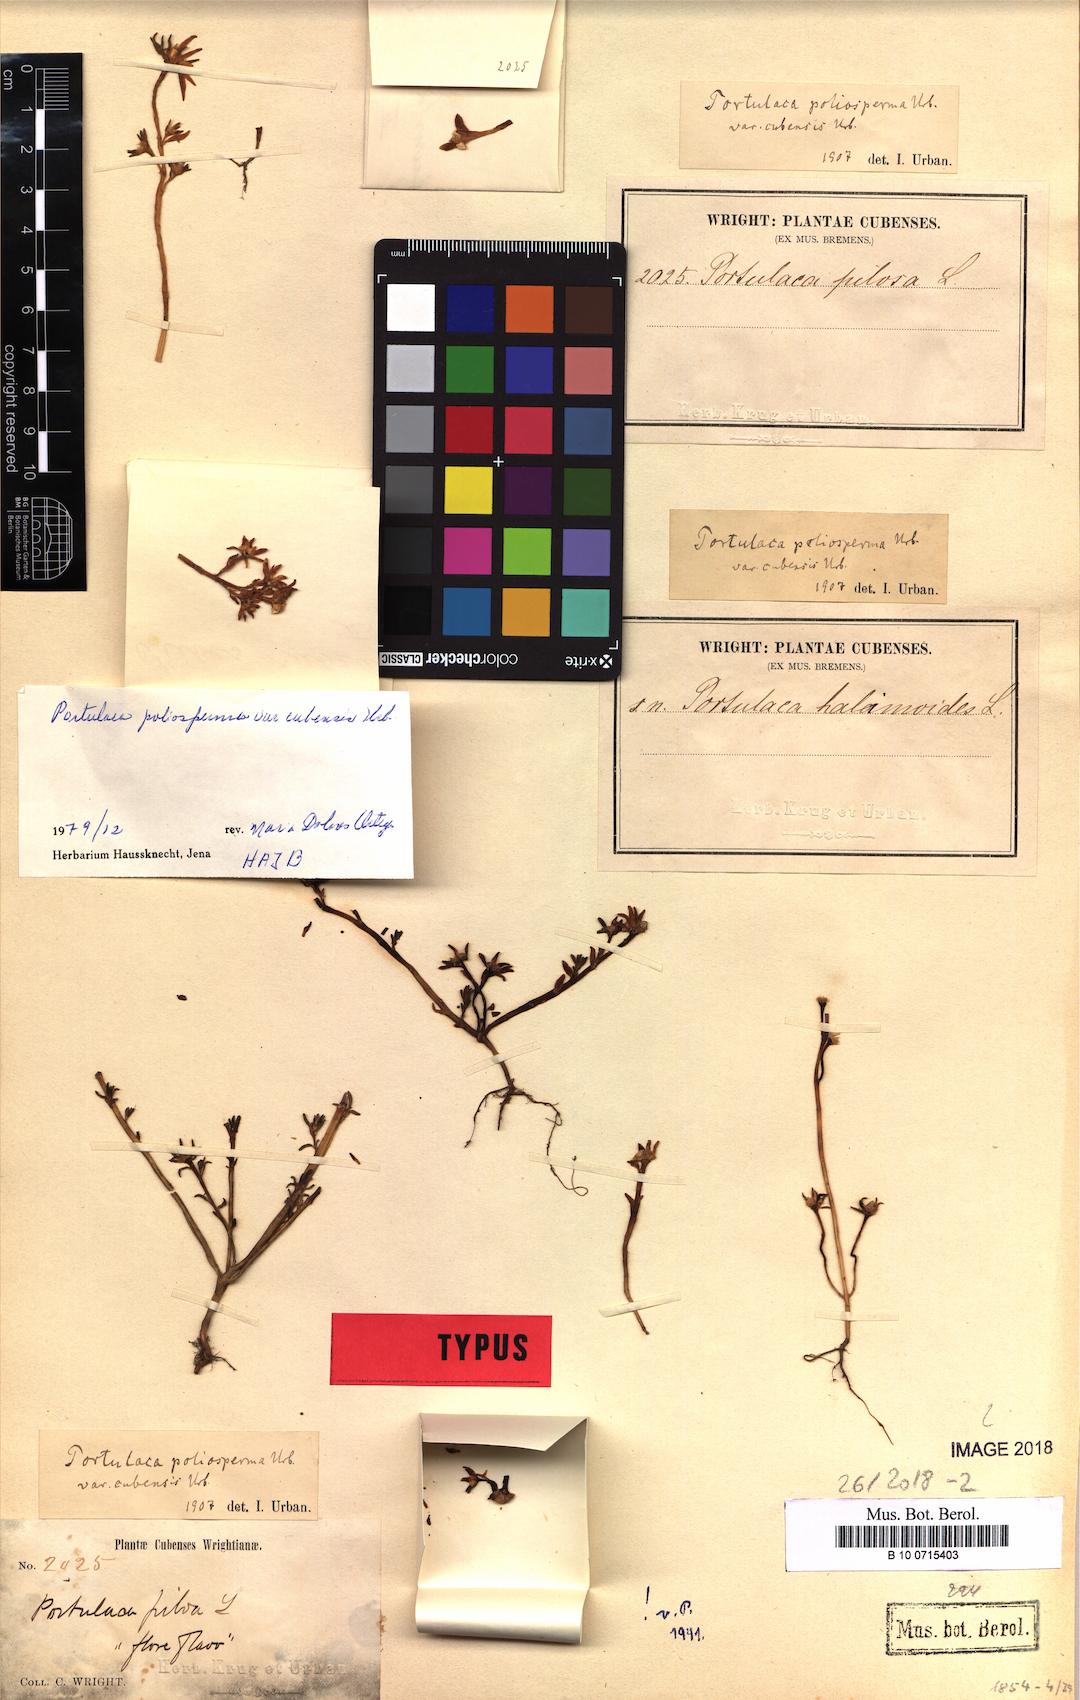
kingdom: Plantae
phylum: Tracheophyta
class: Magnoliopsida
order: Caryophyllales
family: Portulacaceae
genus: Portulaca
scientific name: Portulaca biloba
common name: Cuban purslane
